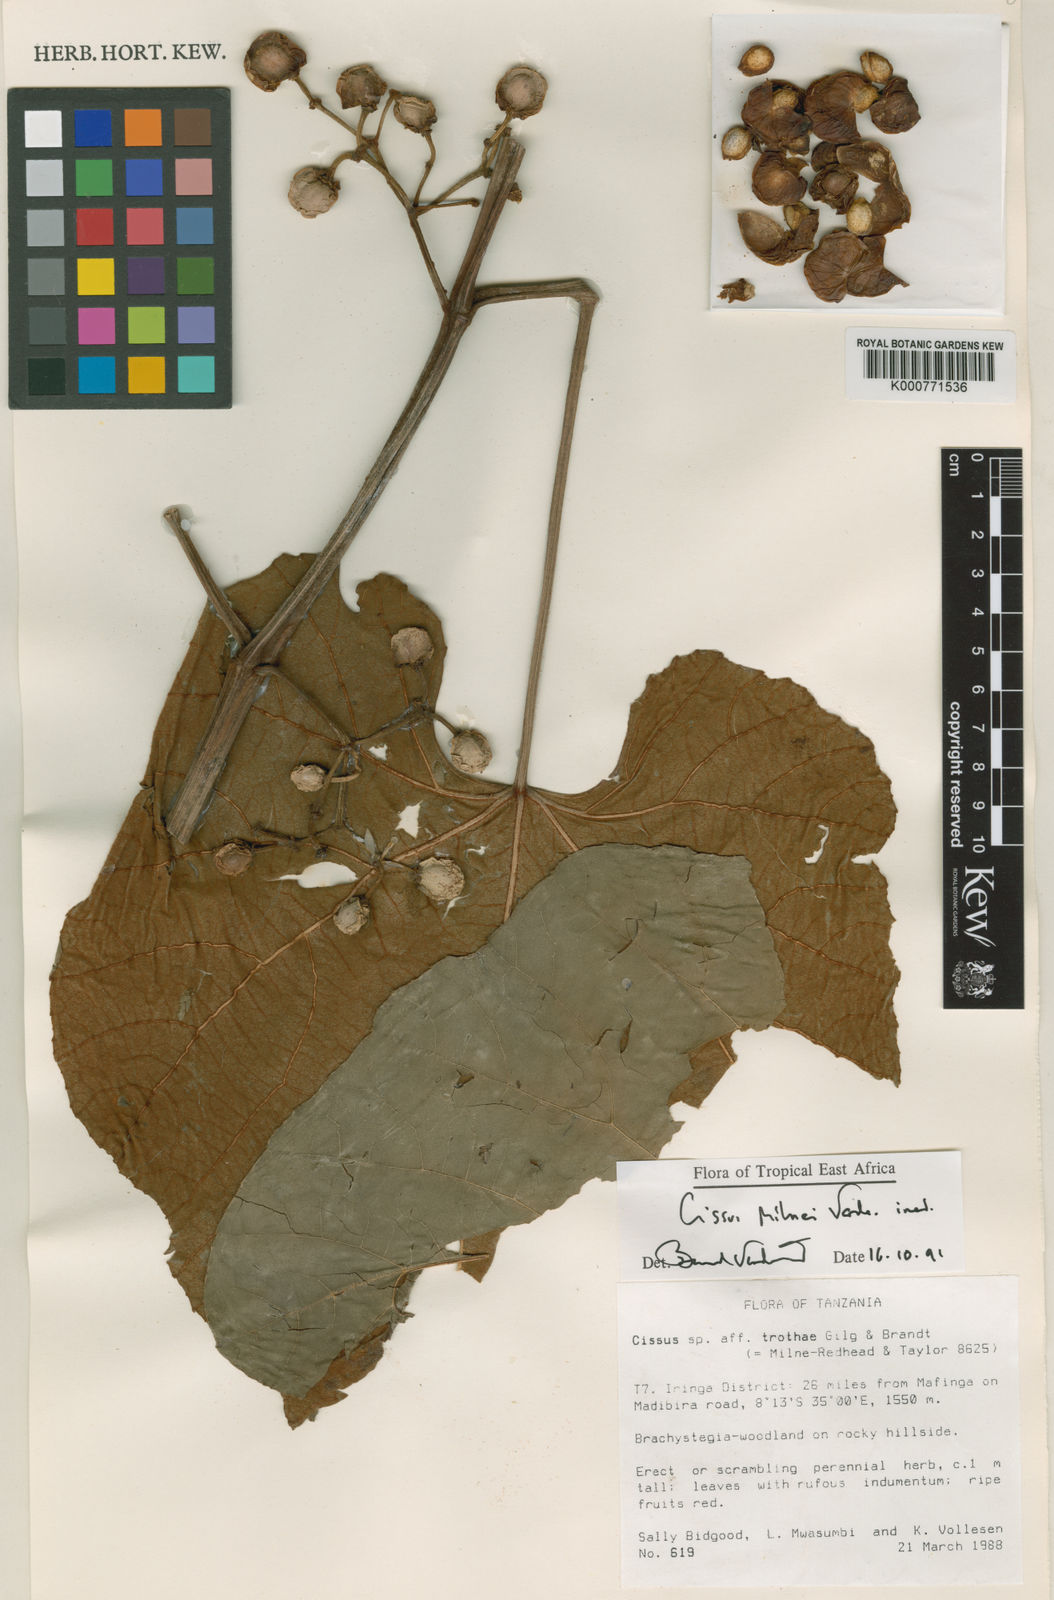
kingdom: Plantae
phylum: Tracheophyta
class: Magnoliopsida
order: Vitales
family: Vitaceae
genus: Cissus
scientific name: Cissus milnei
